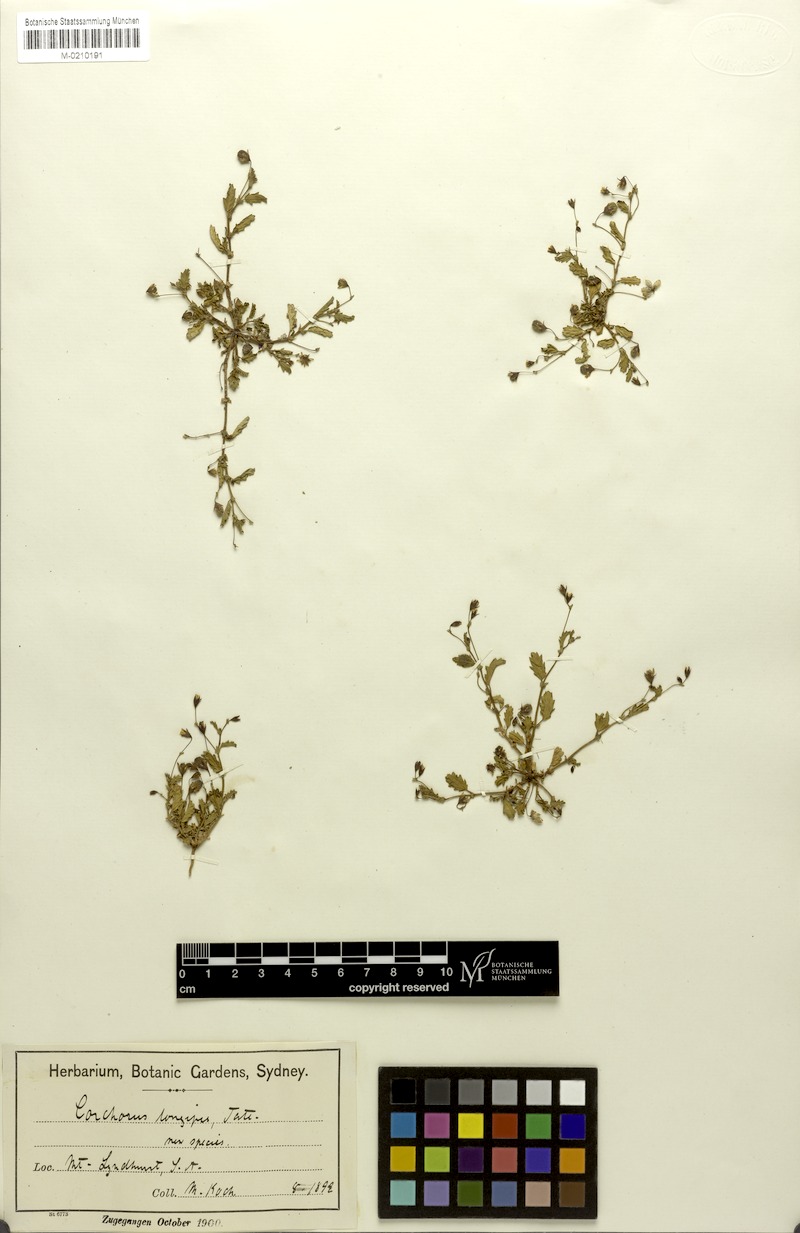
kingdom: Plantae
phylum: Tracheophyta
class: Magnoliopsida
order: Malvales
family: Malvaceae
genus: Gilesia
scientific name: Gilesia biniflora
